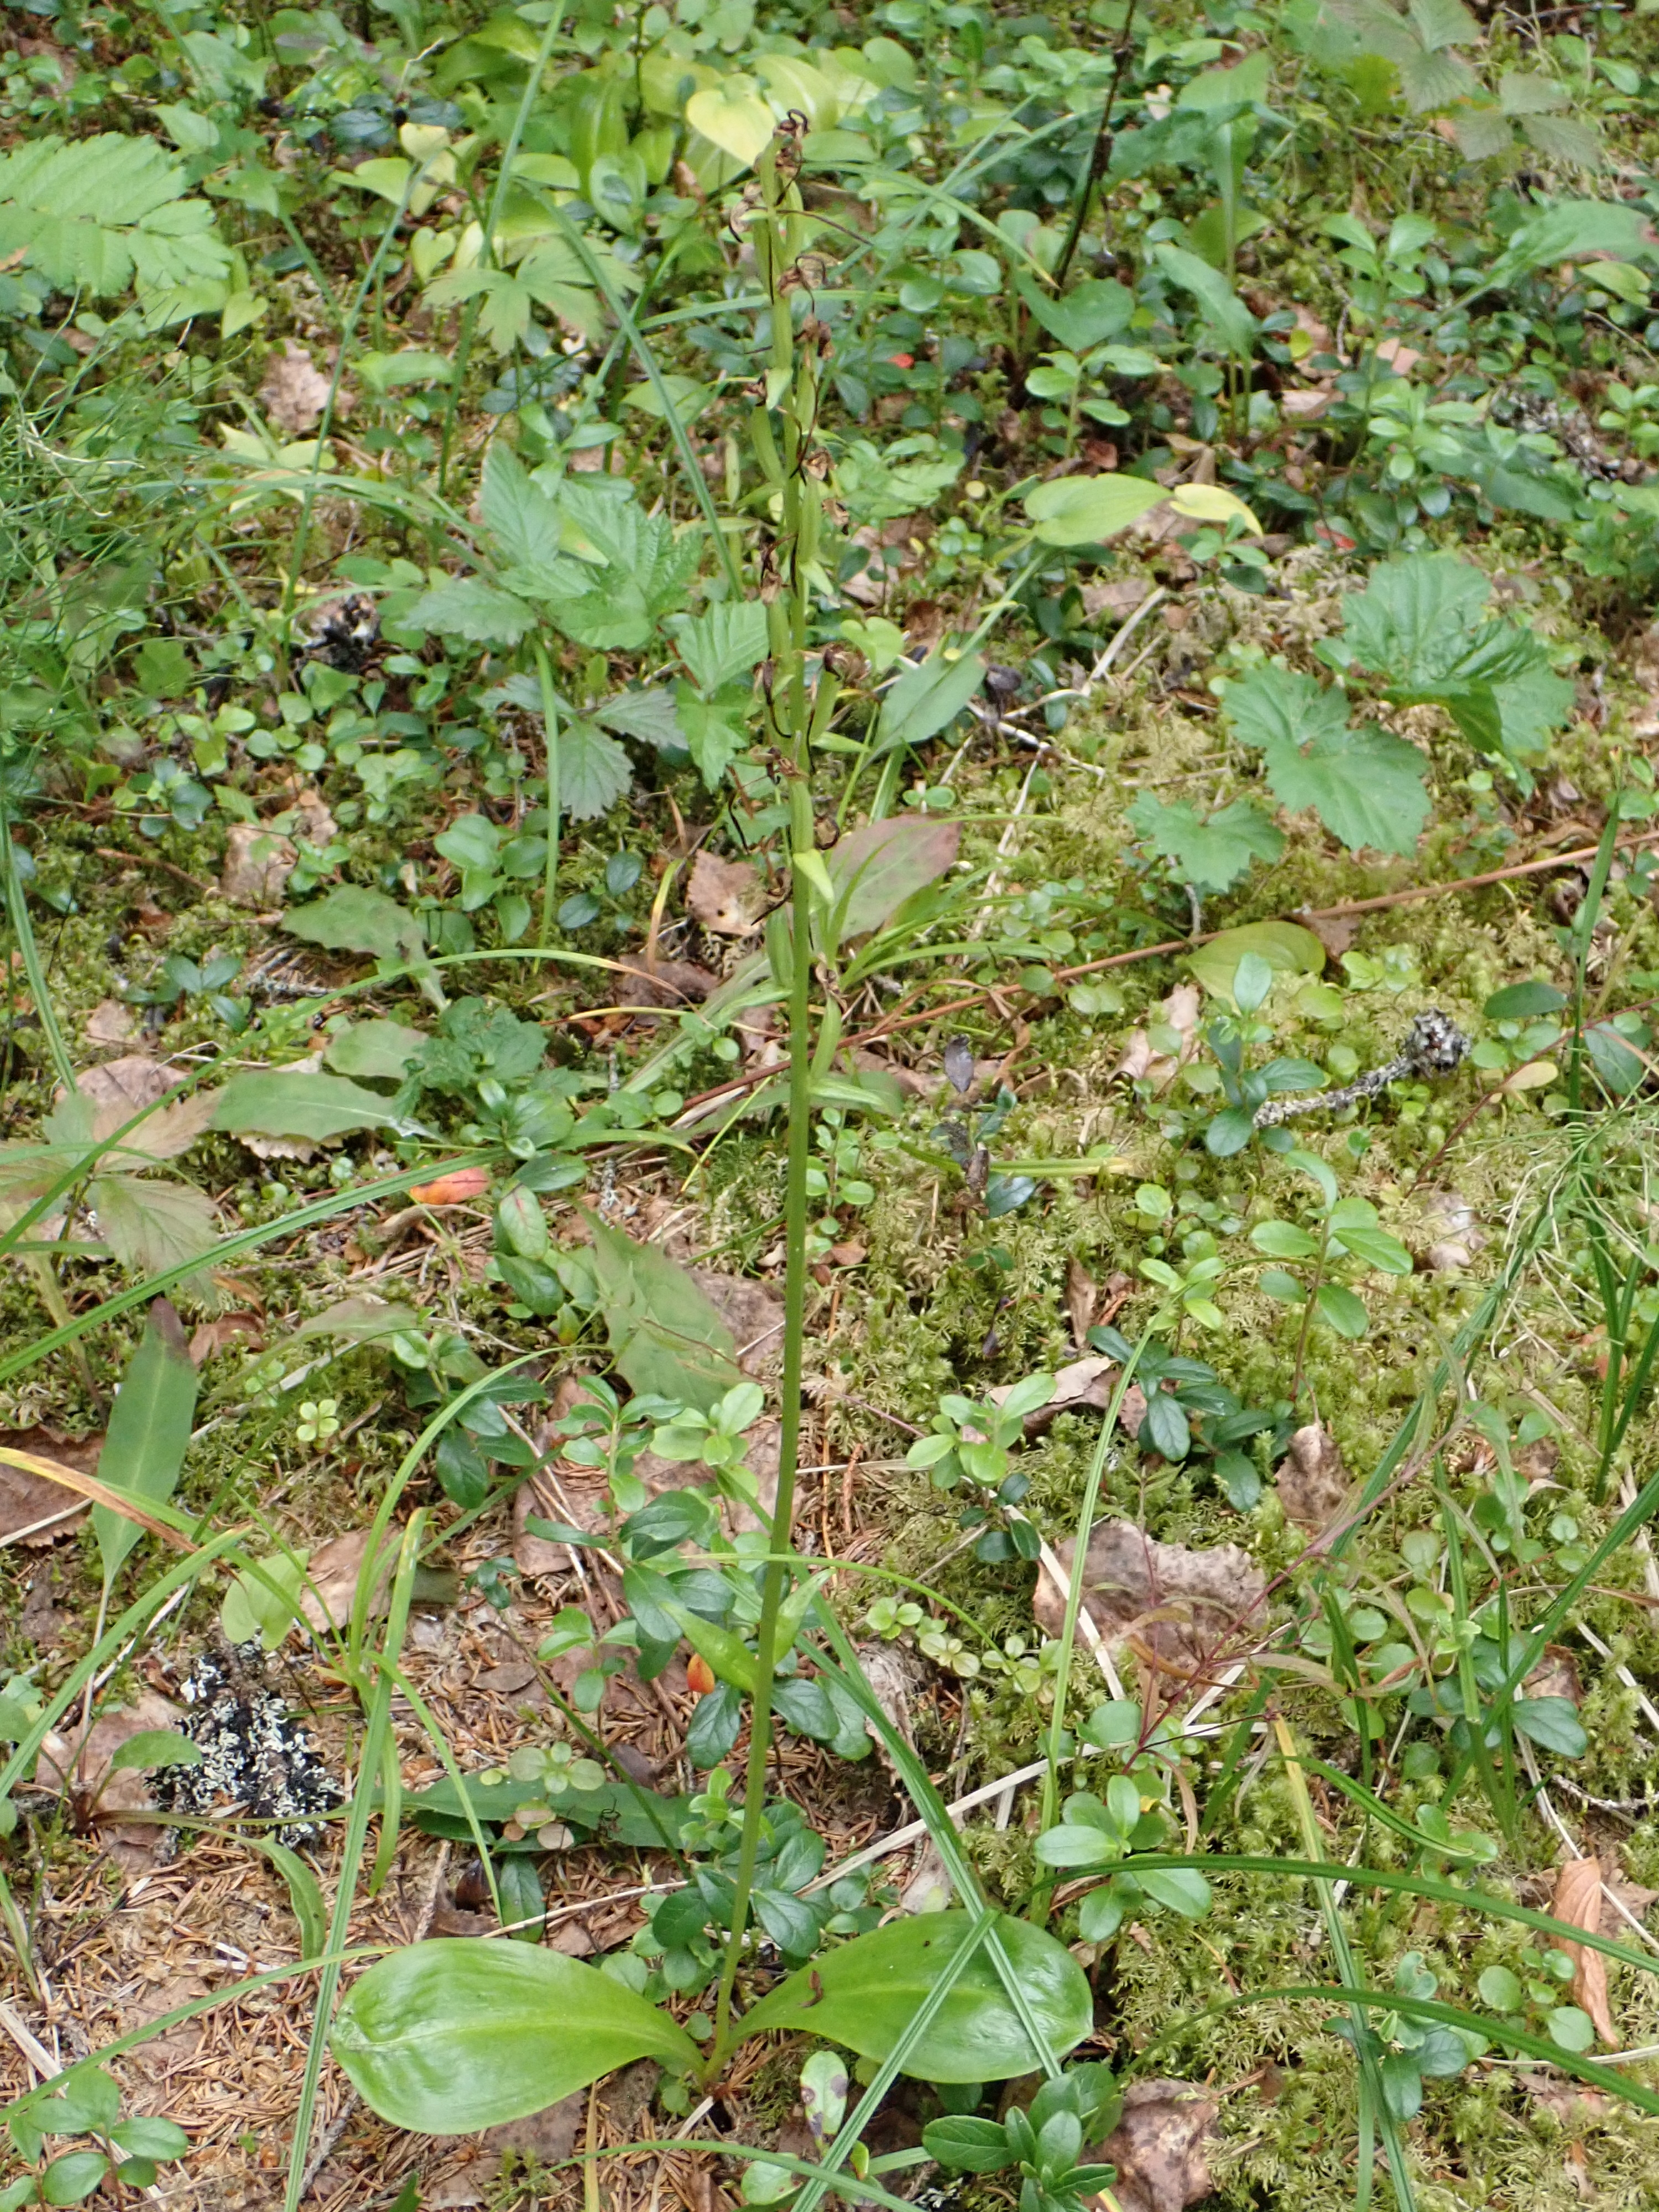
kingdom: Plantae
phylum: Tracheophyta
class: Liliopsida
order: Asparagales
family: Orchidaceae
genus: Platanthera
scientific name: Platanthera bifolia
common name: Lesser butterfly-orchid
